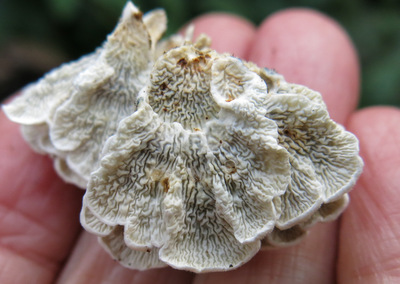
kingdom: Fungi
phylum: Basidiomycota
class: Agaricomycetes
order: Amylocorticiales
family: Amylocorticiaceae
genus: Plicaturopsis
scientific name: Plicaturopsis crispa
